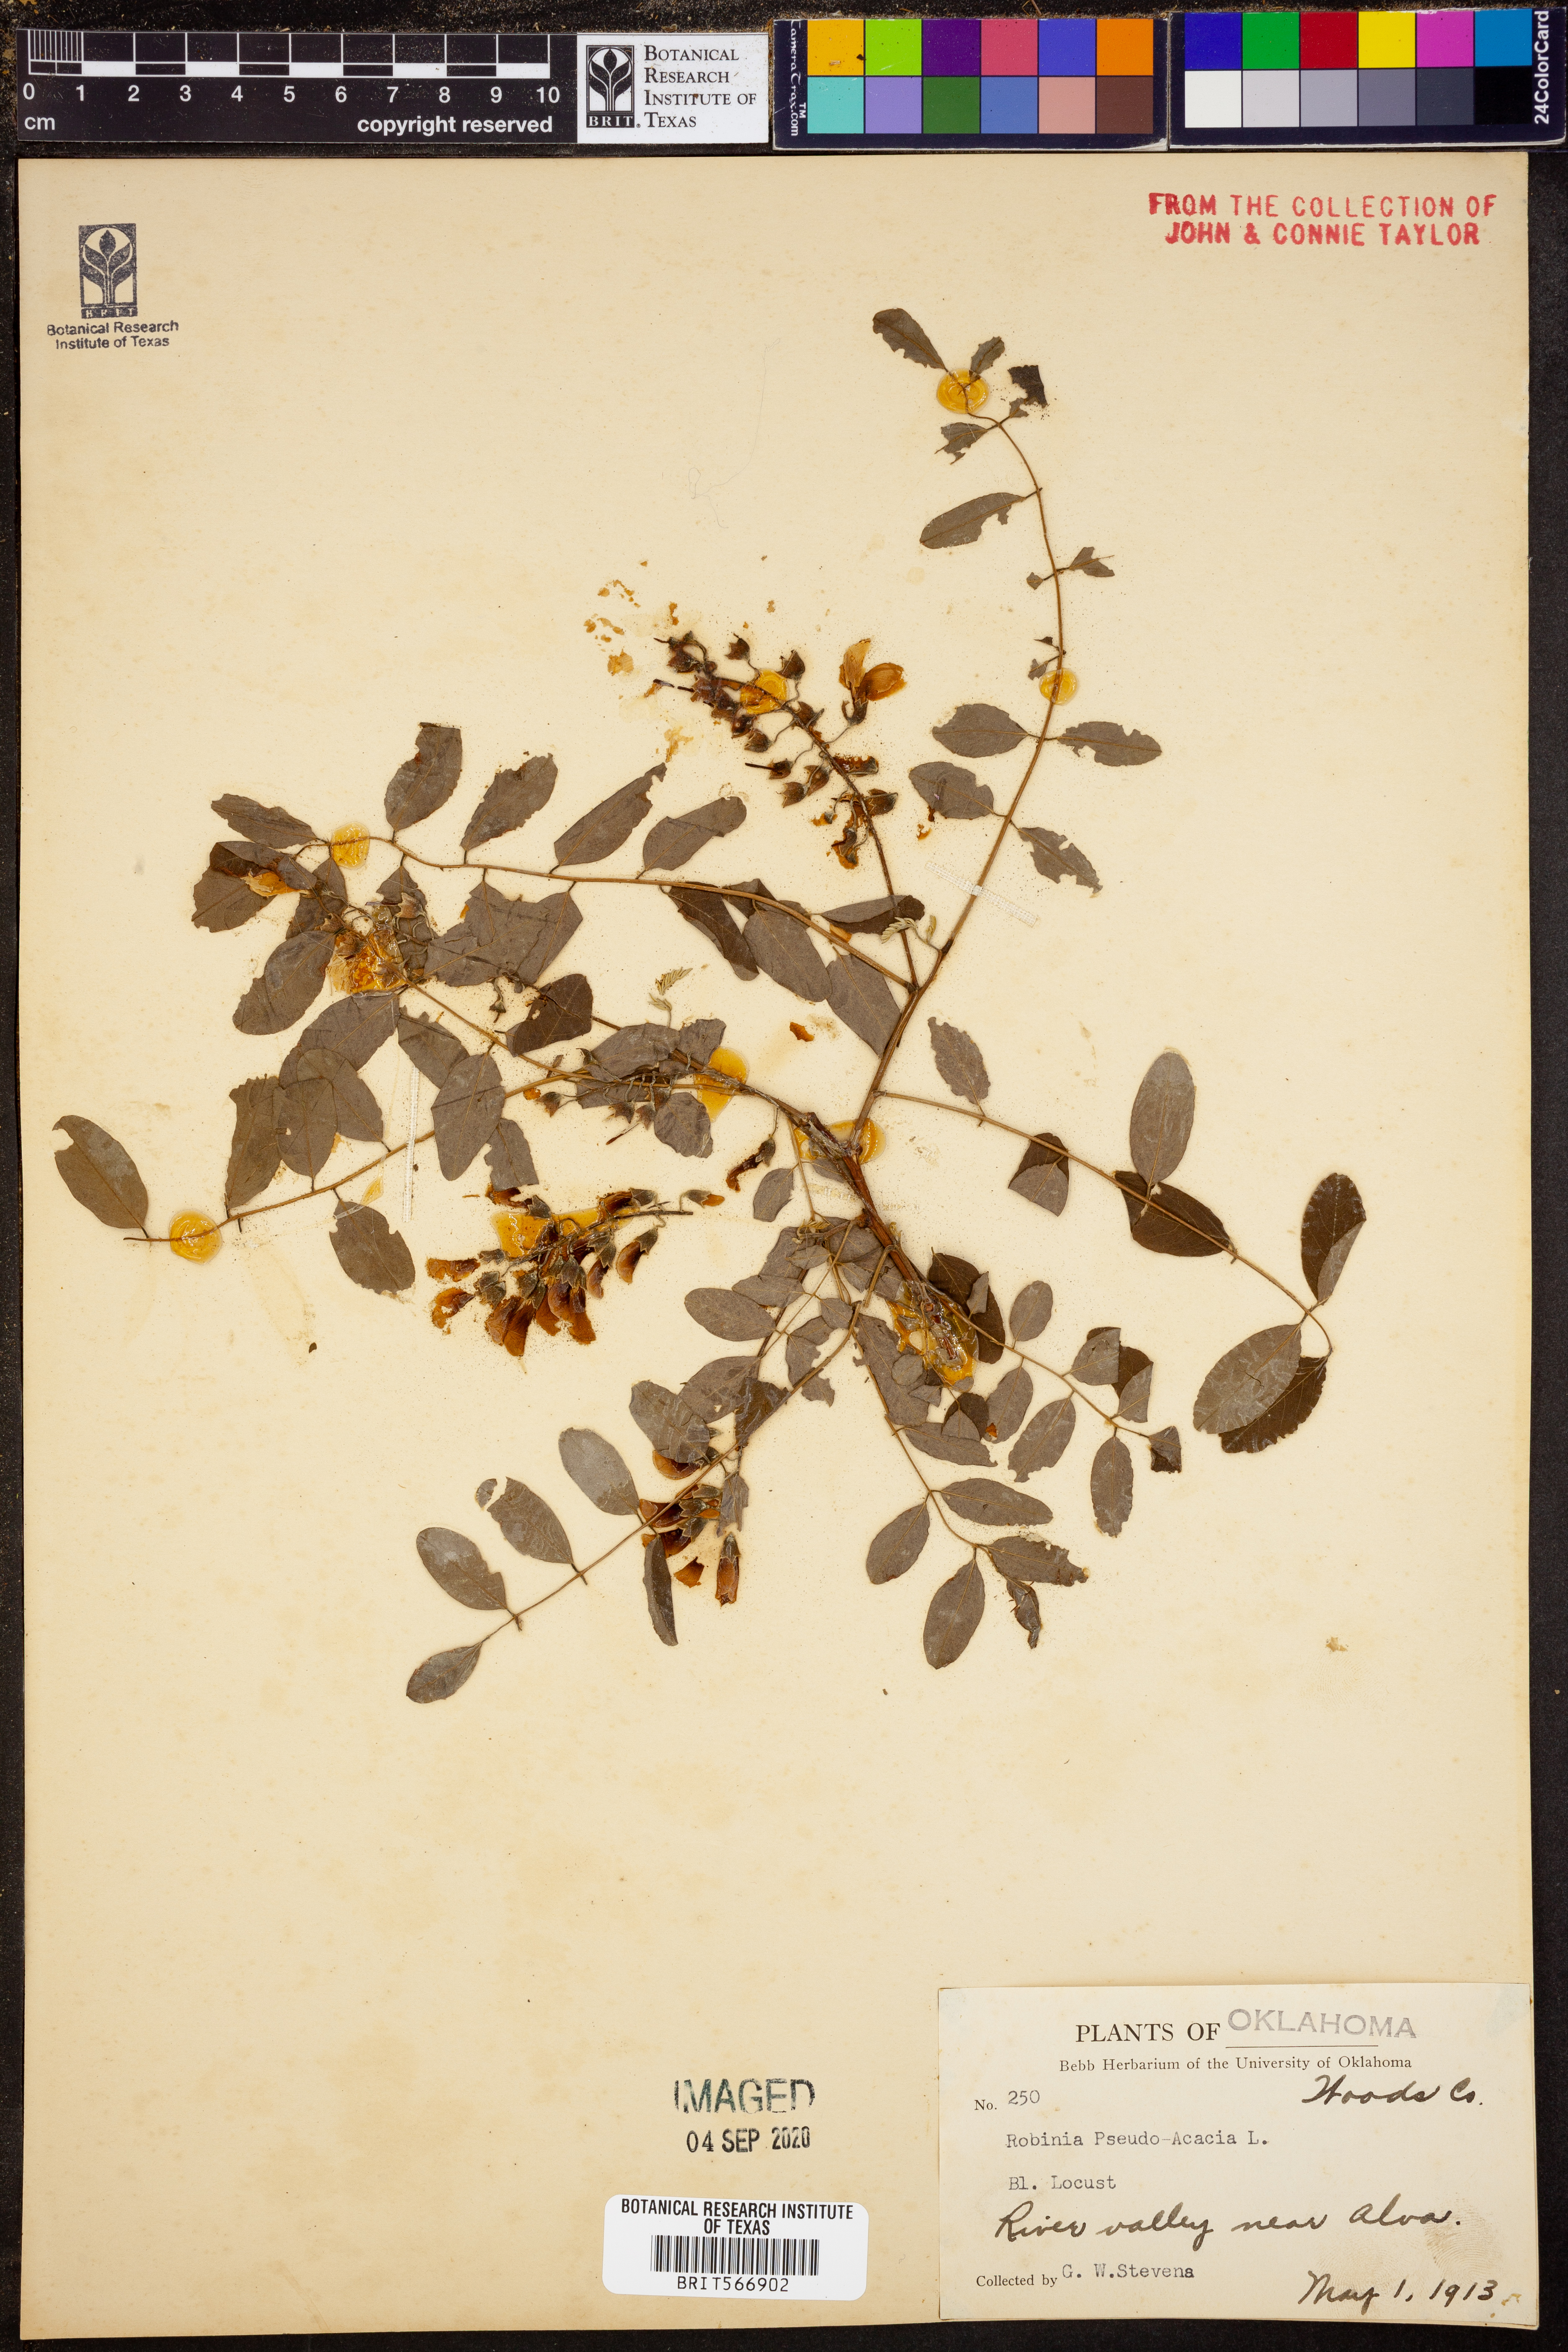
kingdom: Plantae
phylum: Tracheophyta
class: Magnoliopsida
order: Fabales
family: Fabaceae
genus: Robinia
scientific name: Robinia pseudoacacia
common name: Black locust
